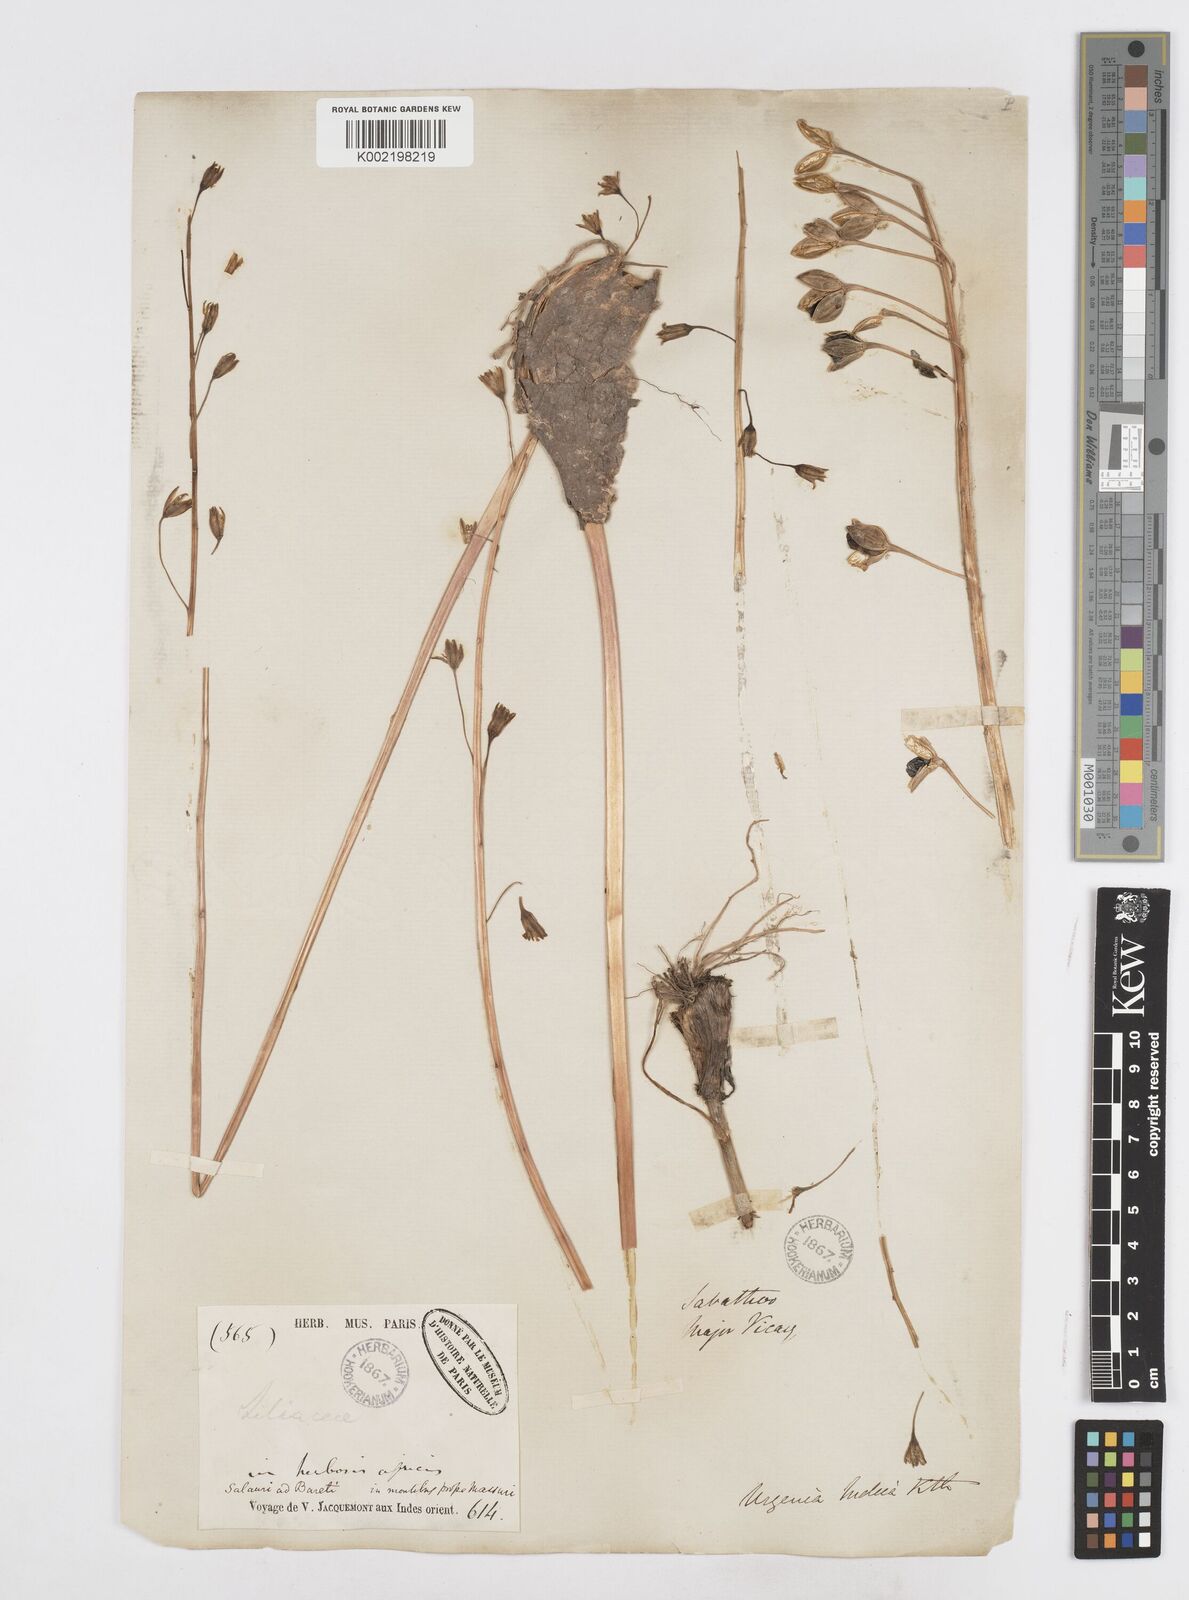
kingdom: Plantae
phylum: Tracheophyta
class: Liliopsida
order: Asparagales
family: Asparagaceae
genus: Drimia
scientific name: Drimia indica
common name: Indian-squill
